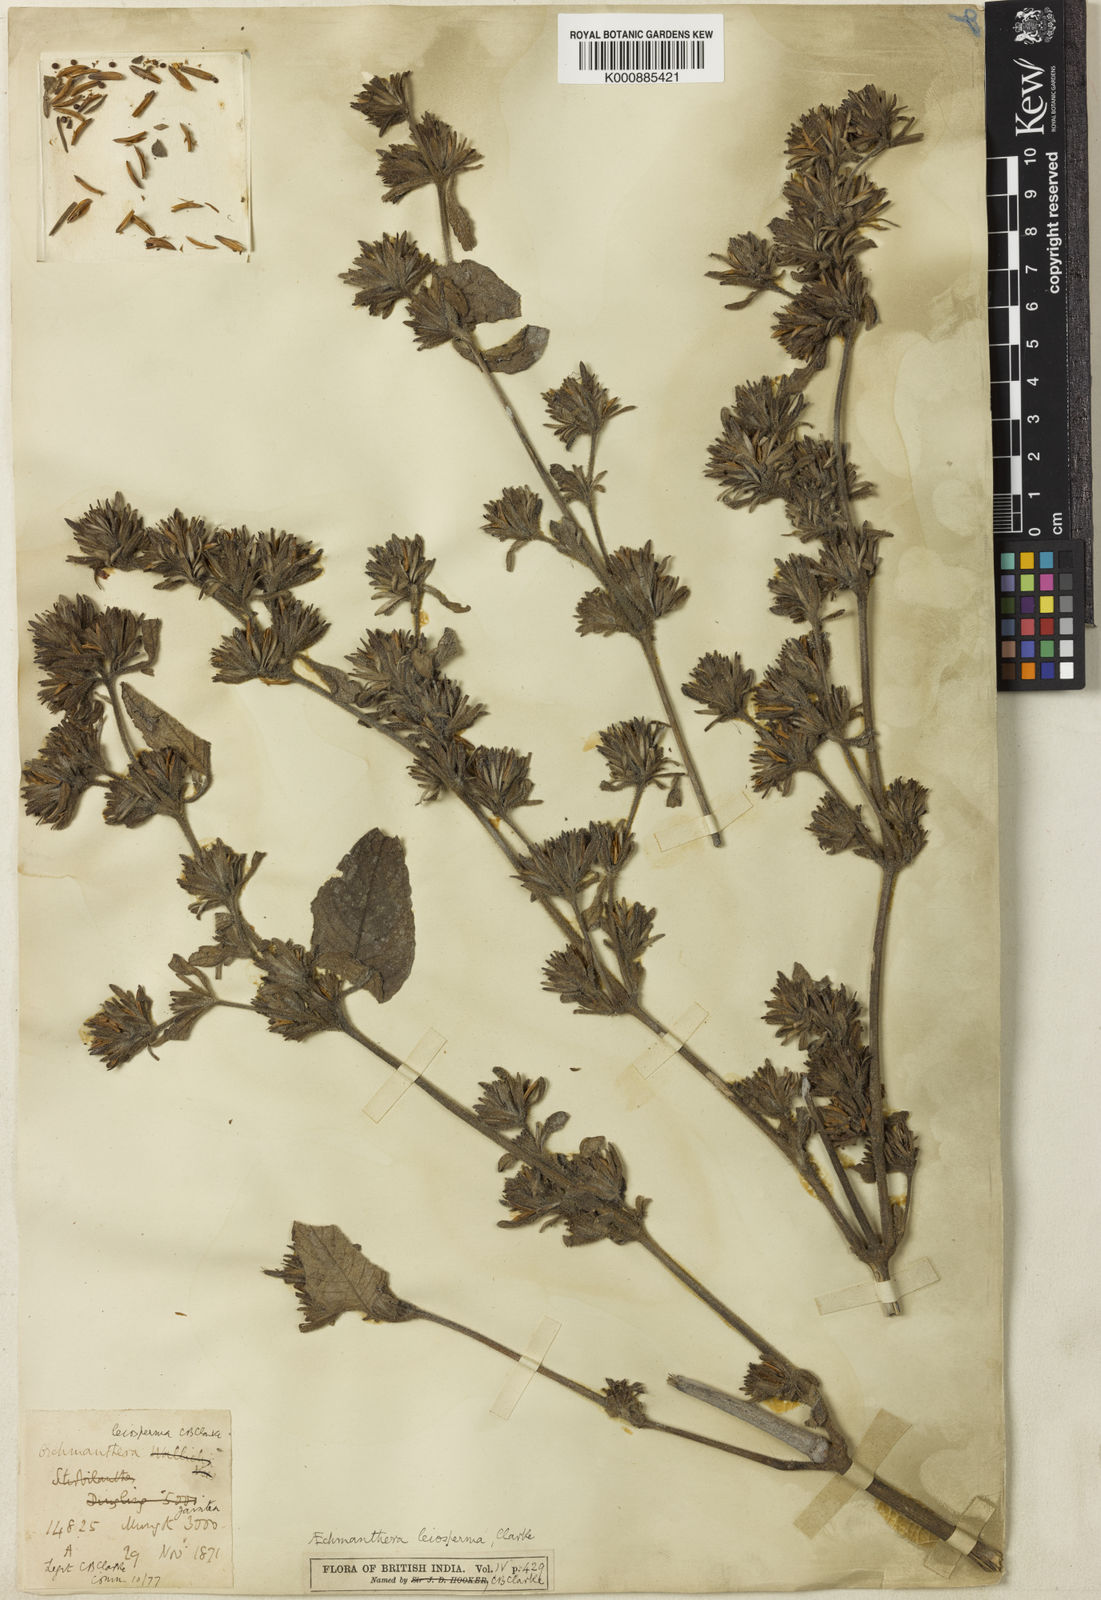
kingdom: Plantae
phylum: Tracheophyta
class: Magnoliopsida
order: Lamiales
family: Acanthaceae
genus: Strobilanthes
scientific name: Strobilanthes tomentosa
